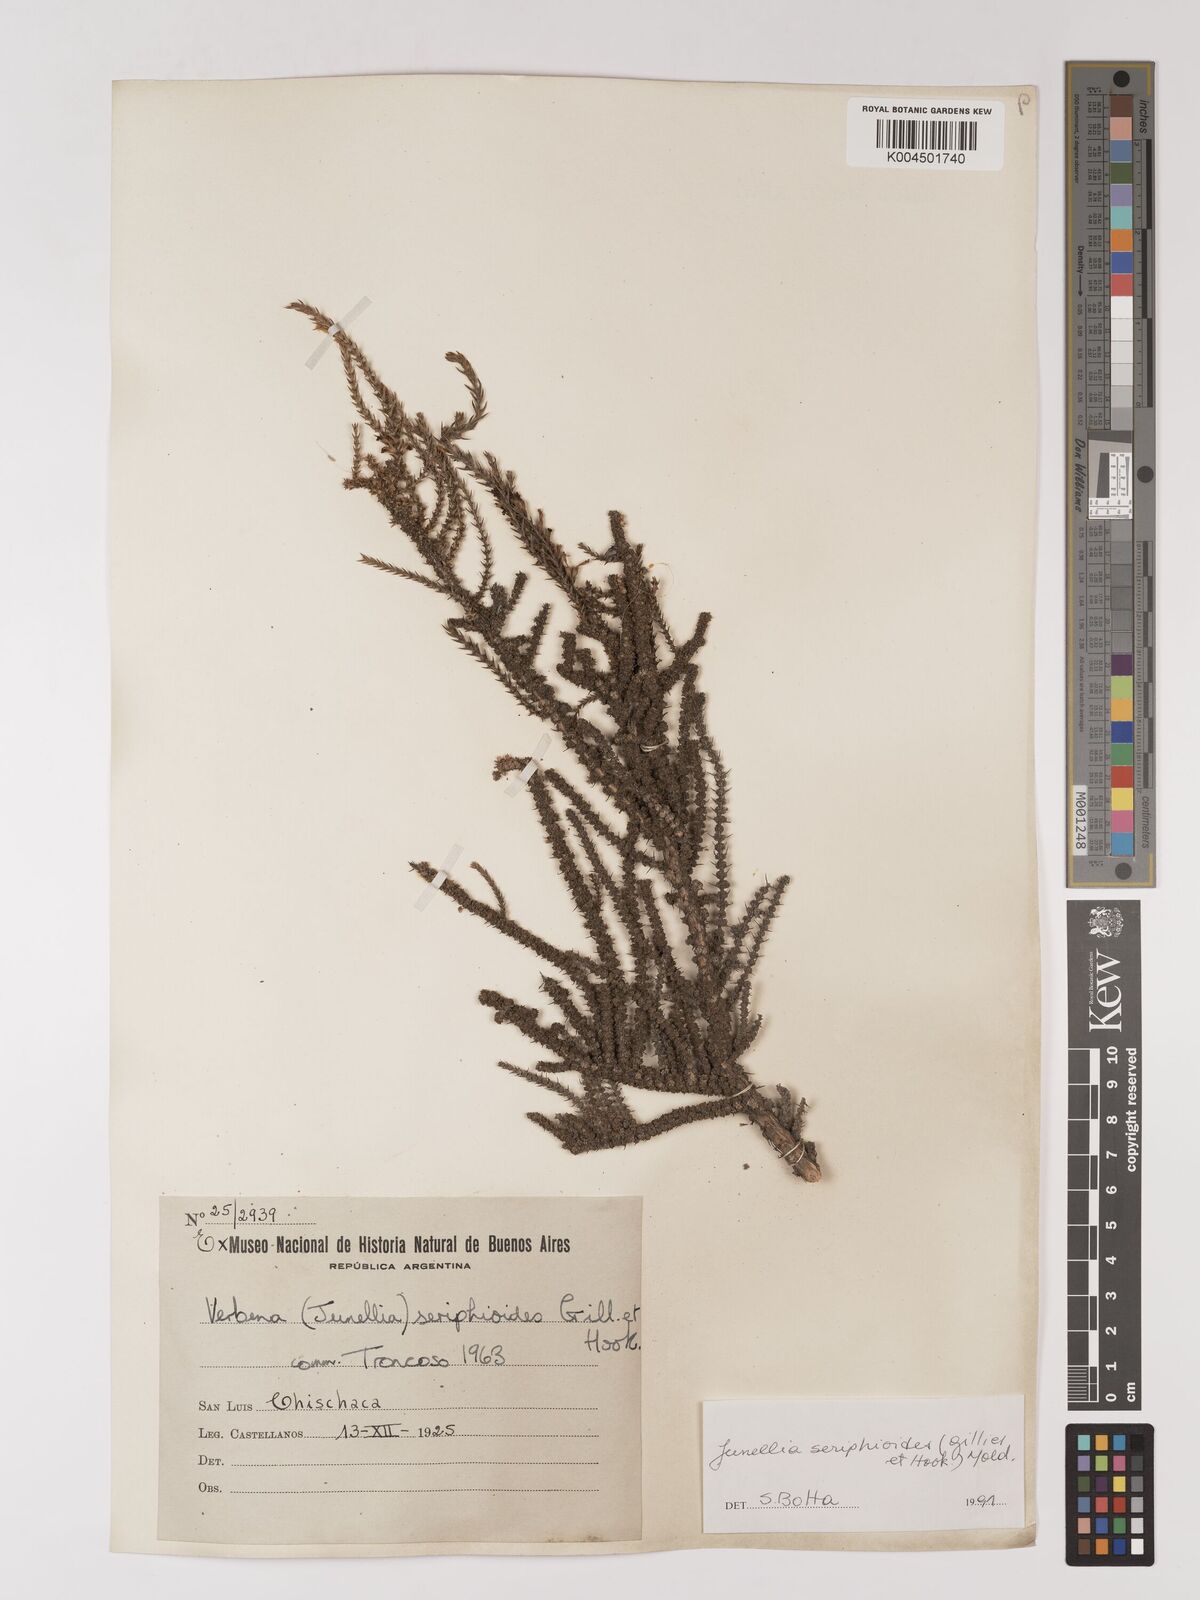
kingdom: Plantae
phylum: Tracheophyta
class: Magnoliopsida
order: Lamiales
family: Verbenaceae
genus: Junellia
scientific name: Junellia seriphioides
